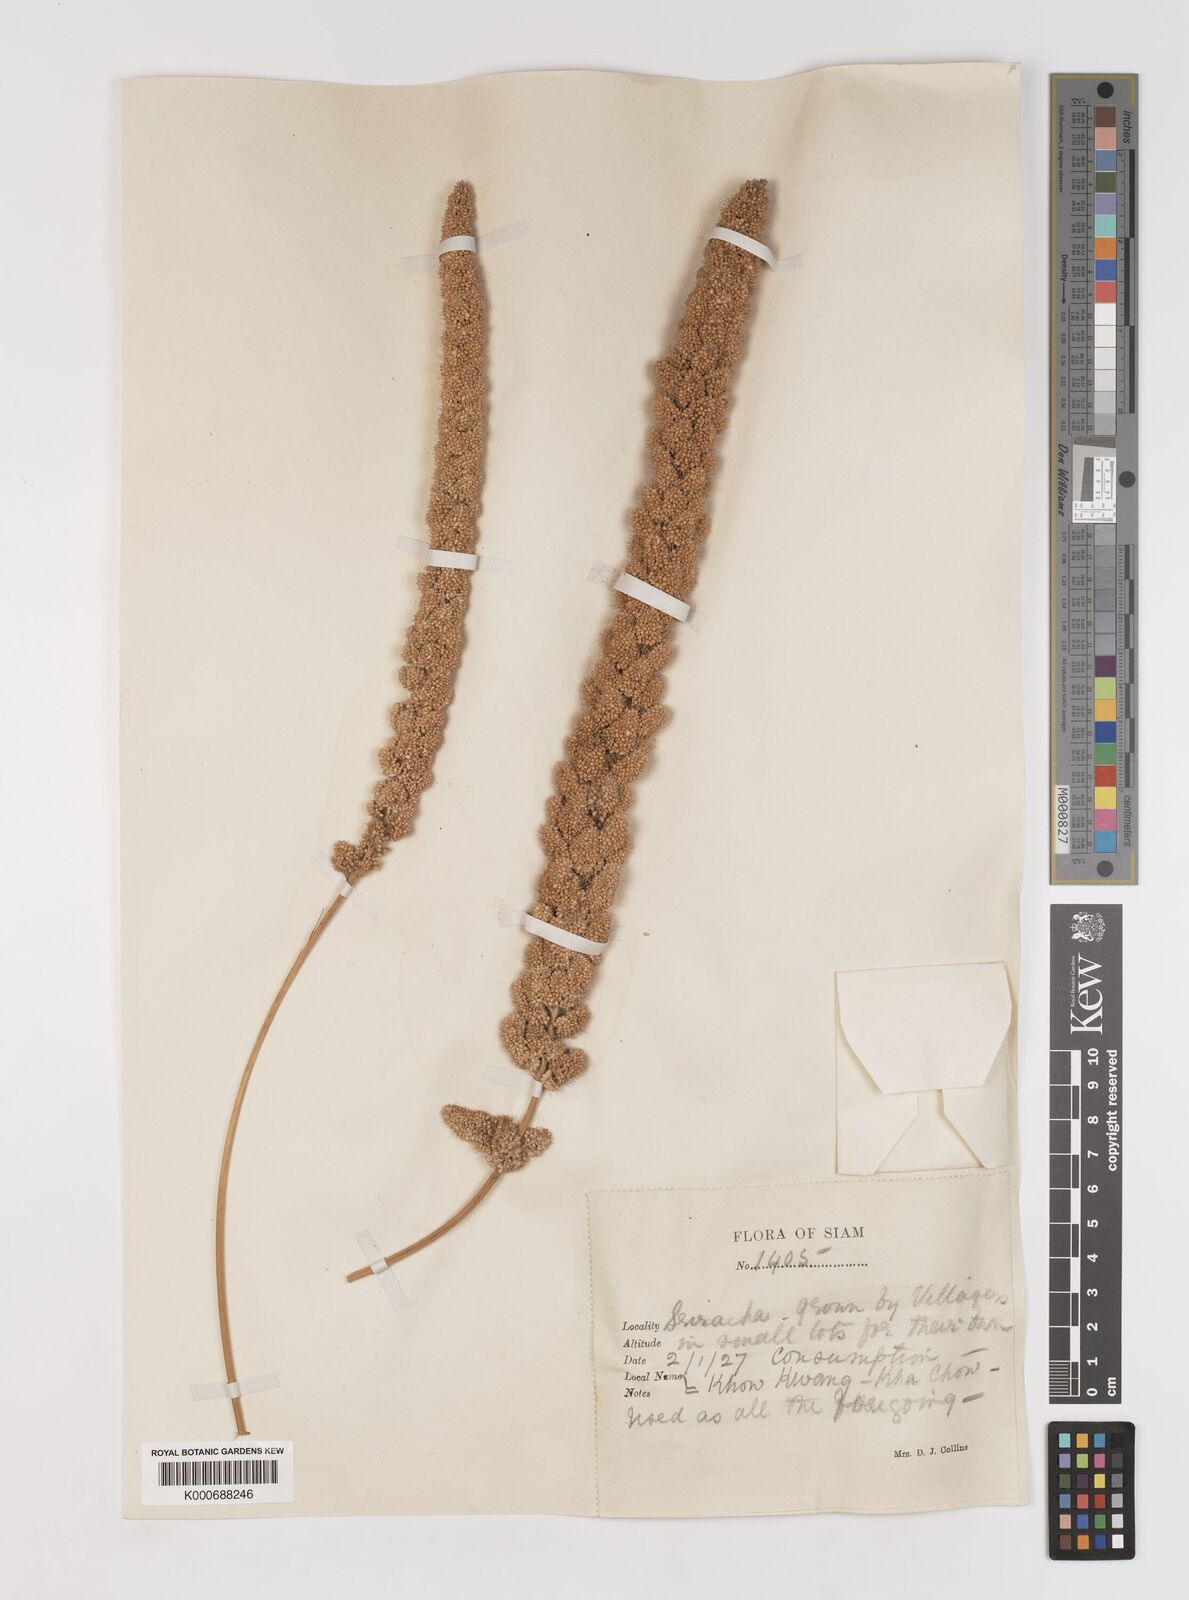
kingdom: Plantae
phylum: Tracheophyta
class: Liliopsida
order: Poales
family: Poaceae
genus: Setaria
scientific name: Setaria italica
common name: Foxtail bristle-grass
